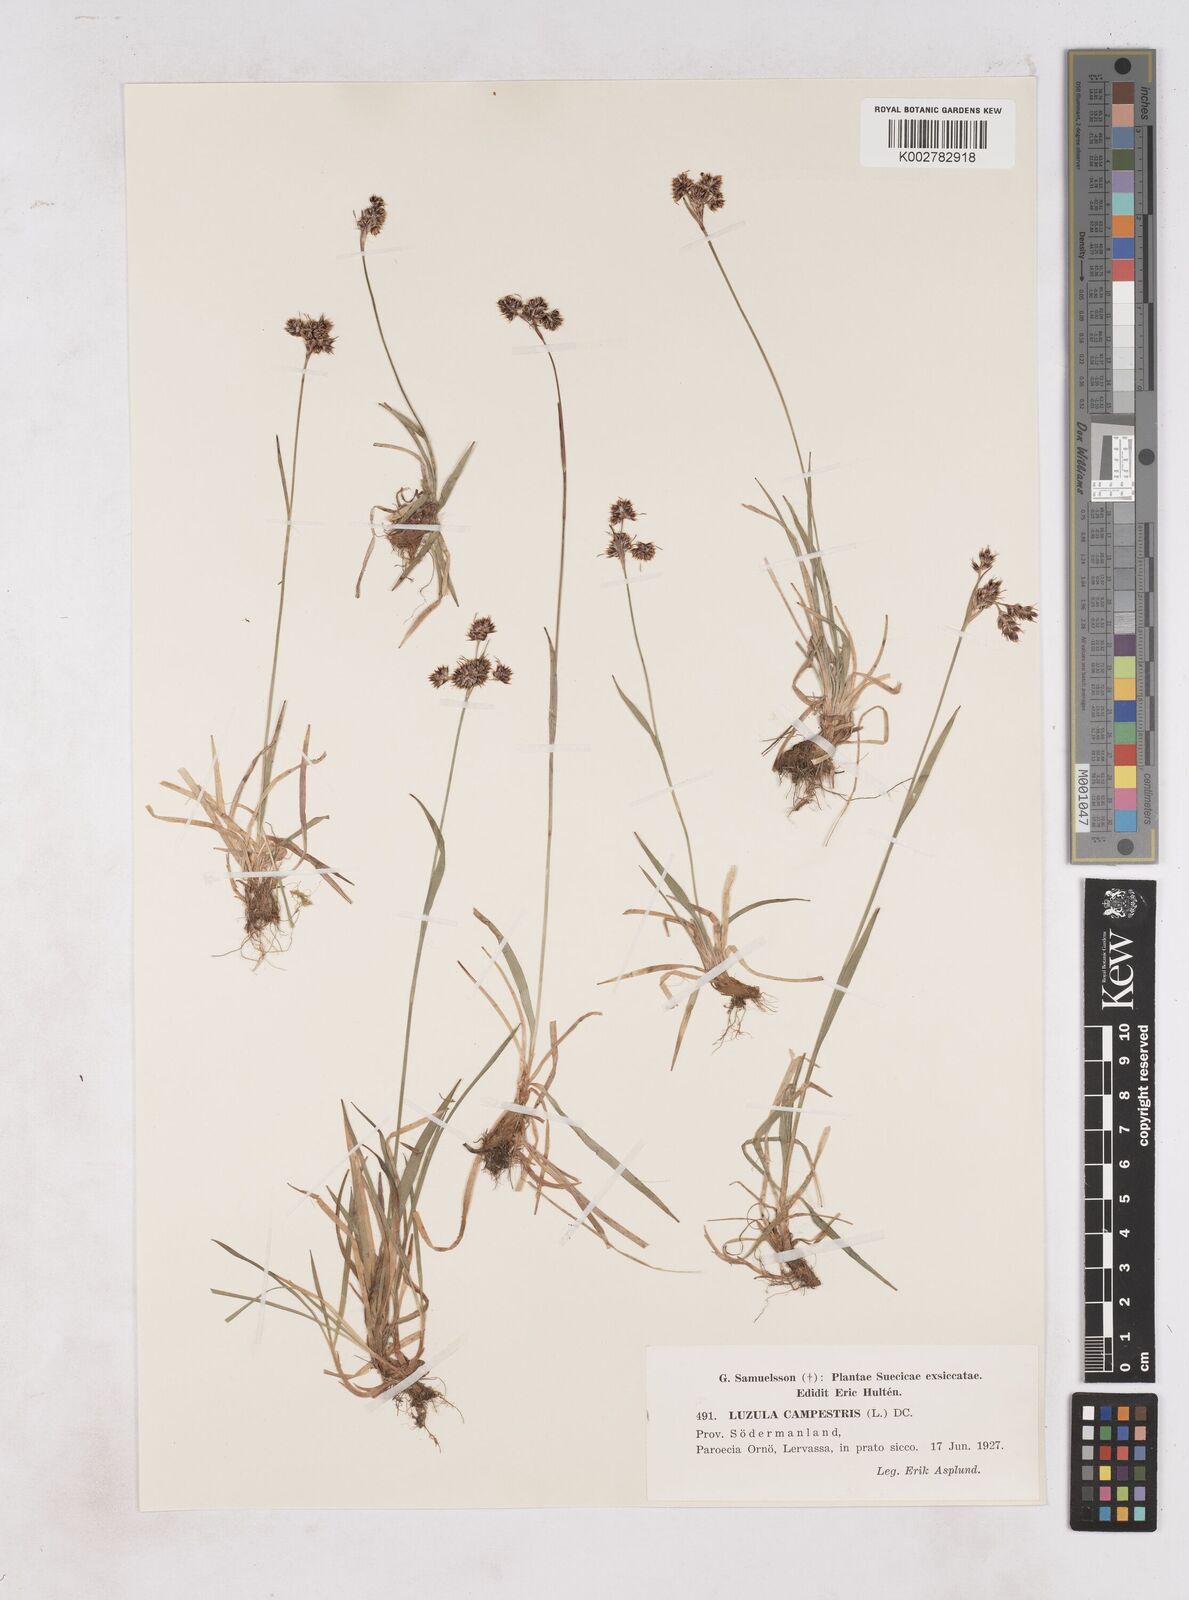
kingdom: Plantae
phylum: Tracheophyta
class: Liliopsida
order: Poales
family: Juncaceae
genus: Luzula
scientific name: Luzula campestris
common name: Field wood-rush
